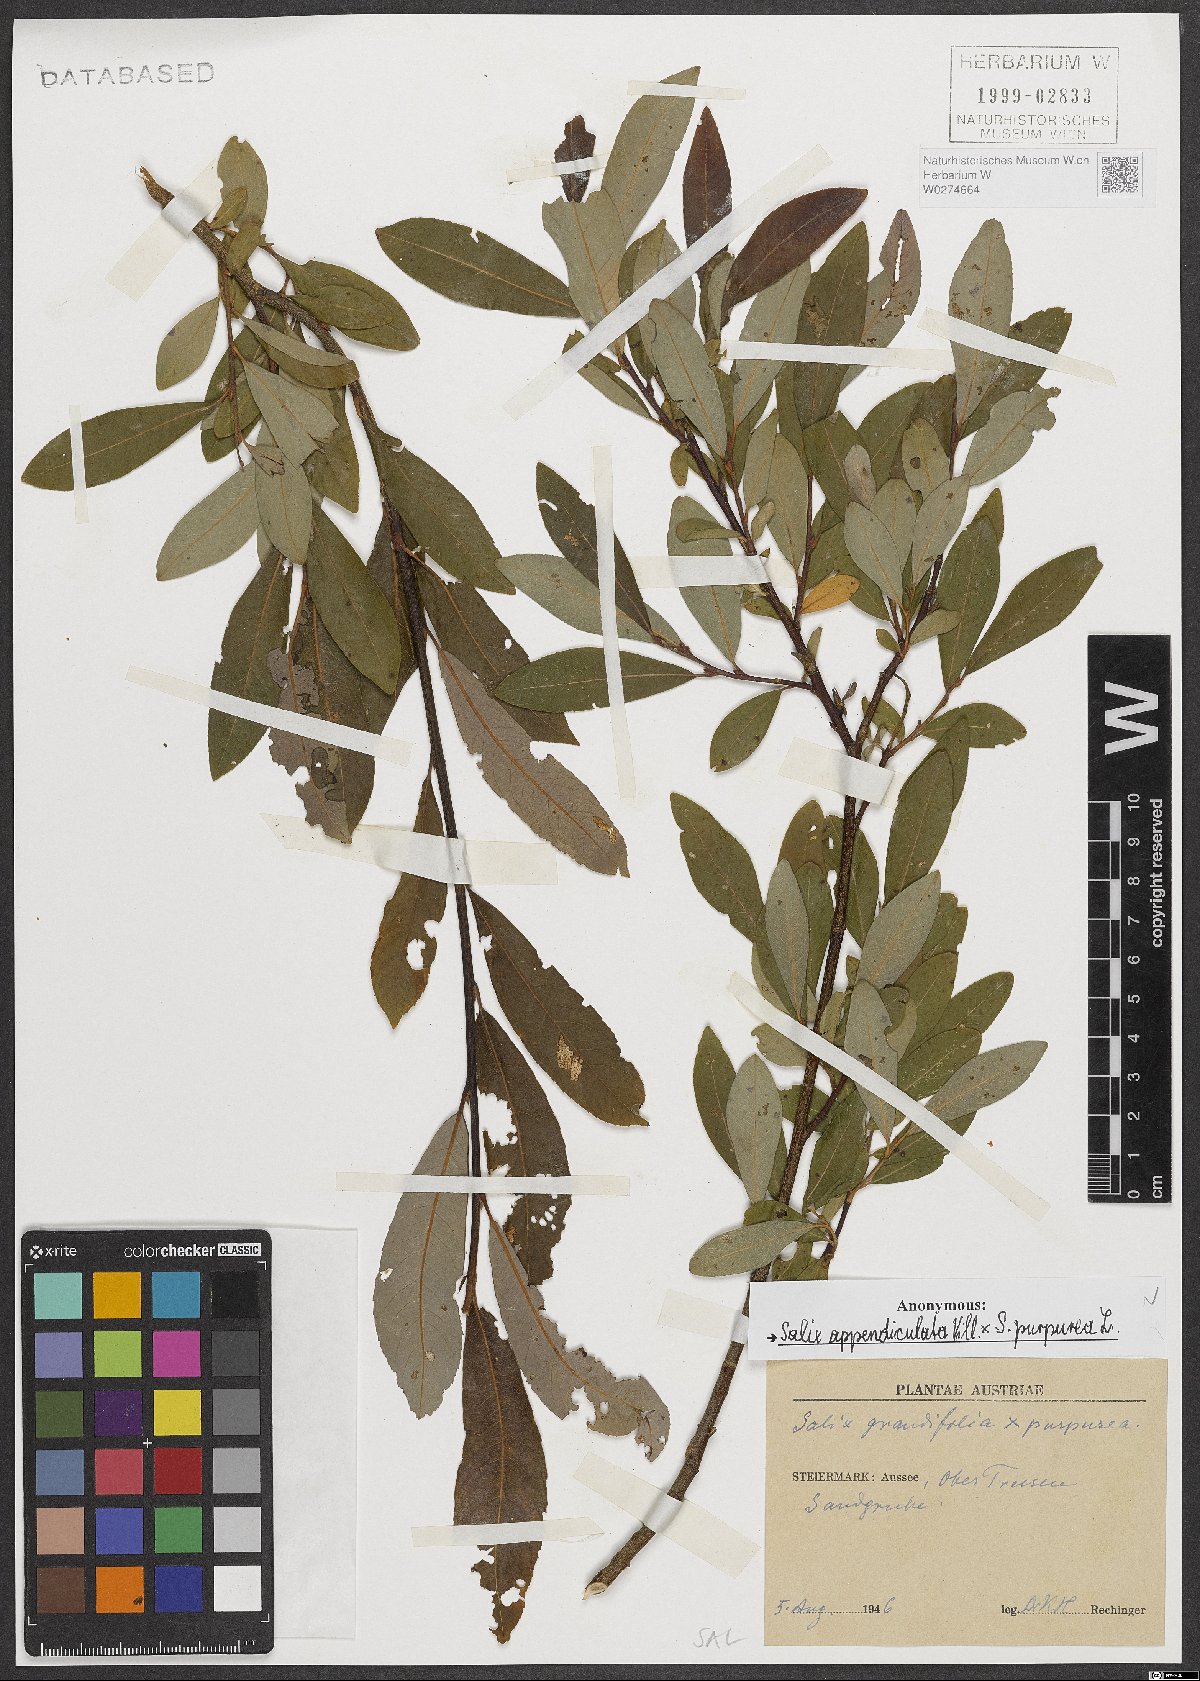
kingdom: Plantae
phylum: Tracheophyta
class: Magnoliopsida
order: Malpighiales
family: Salicaceae
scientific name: Salicaceae
